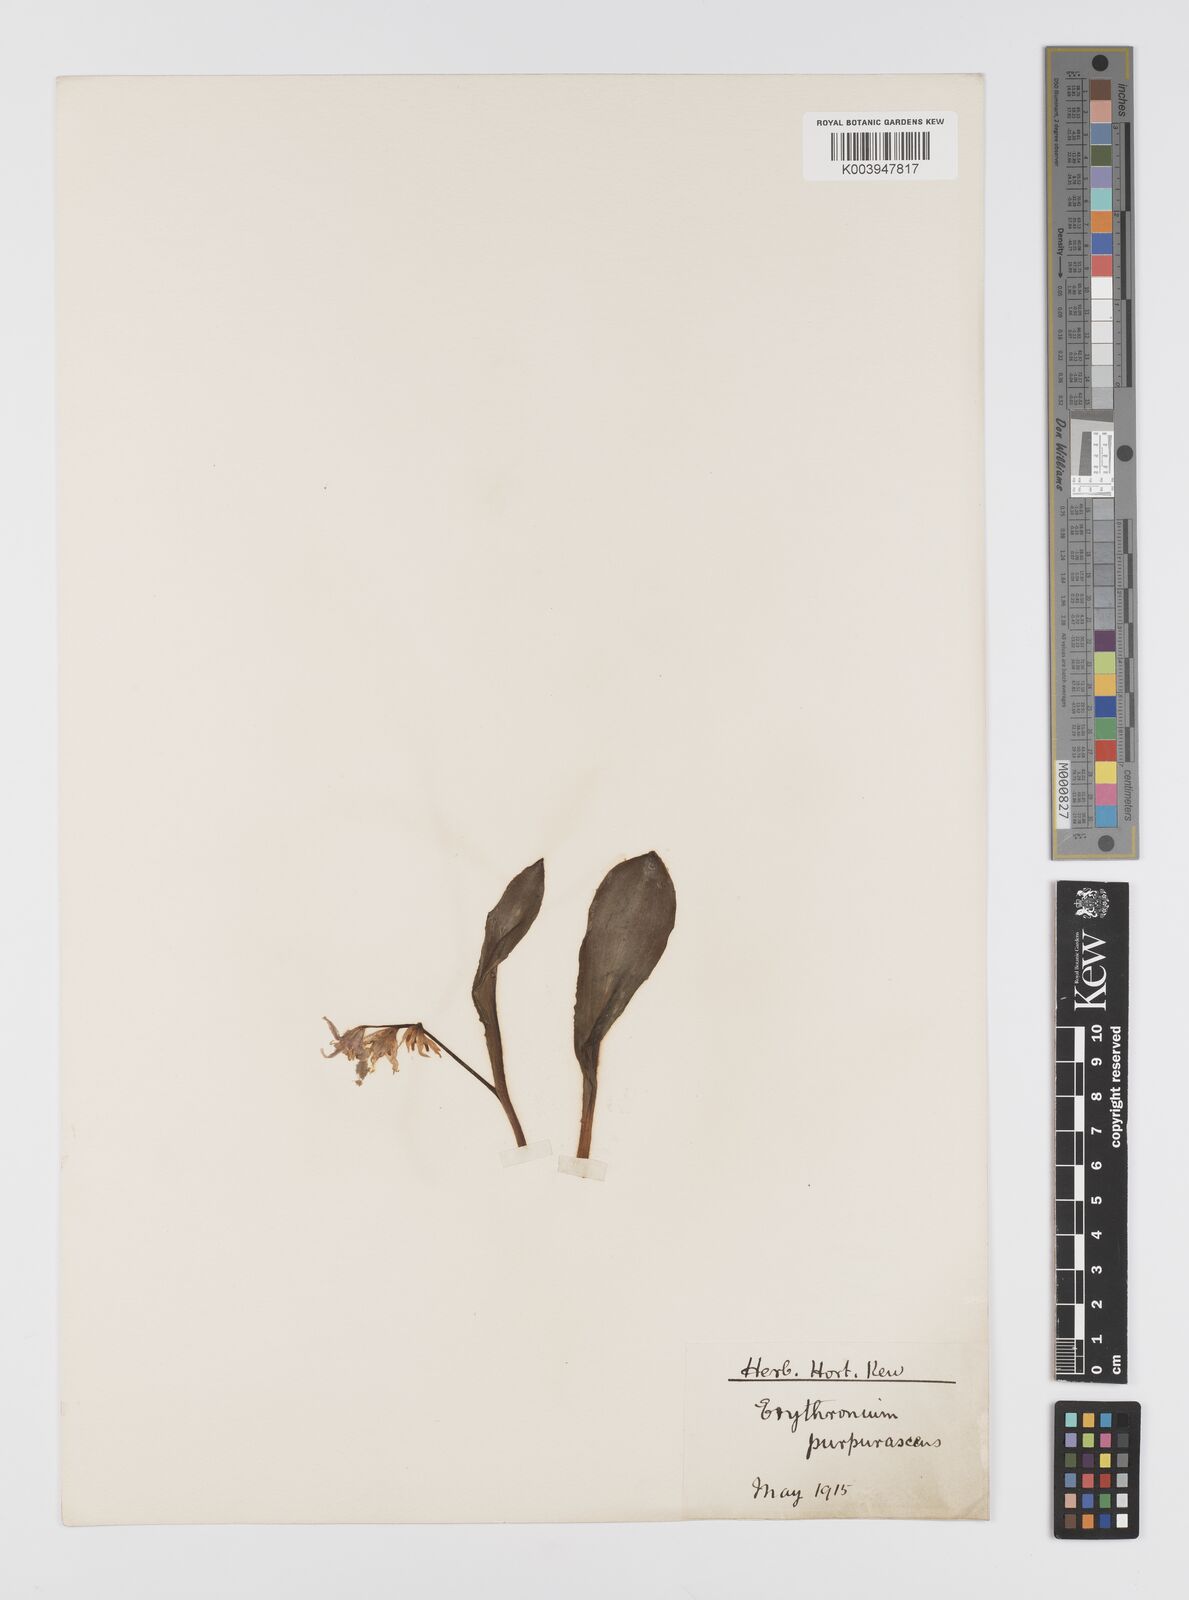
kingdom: Plantae
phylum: Tracheophyta
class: Liliopsida
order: Liliales
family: Liliaceae
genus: Erythronium
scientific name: Erythronium purpurascens
